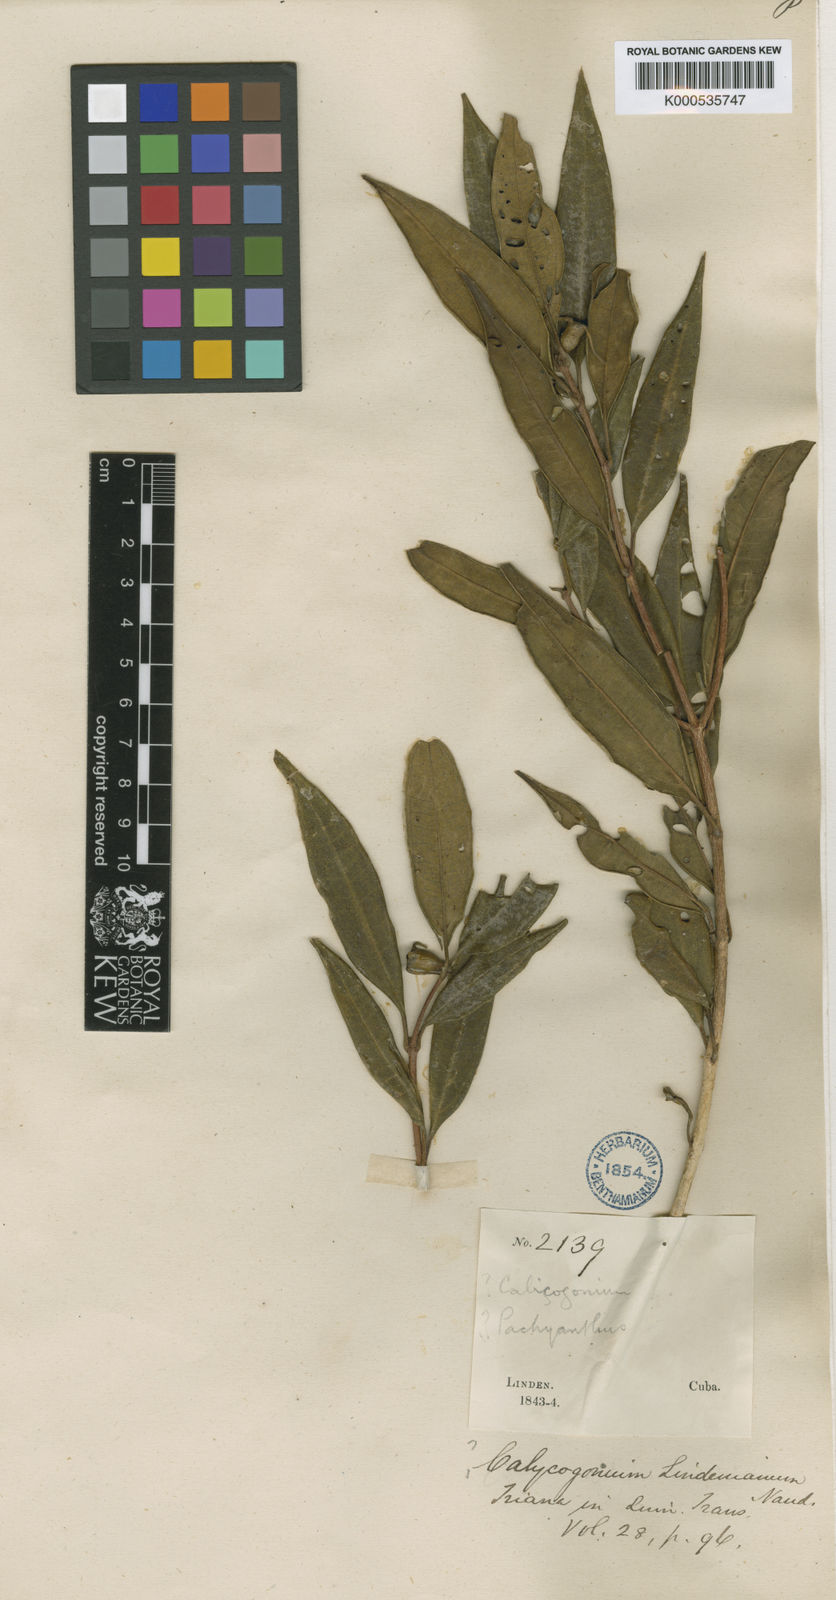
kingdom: Plantae
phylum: Tracheophyta
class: Magnoliopsida
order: Myrtales
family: Melastomataceae
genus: Miconia
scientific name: Miconia lindeniana
